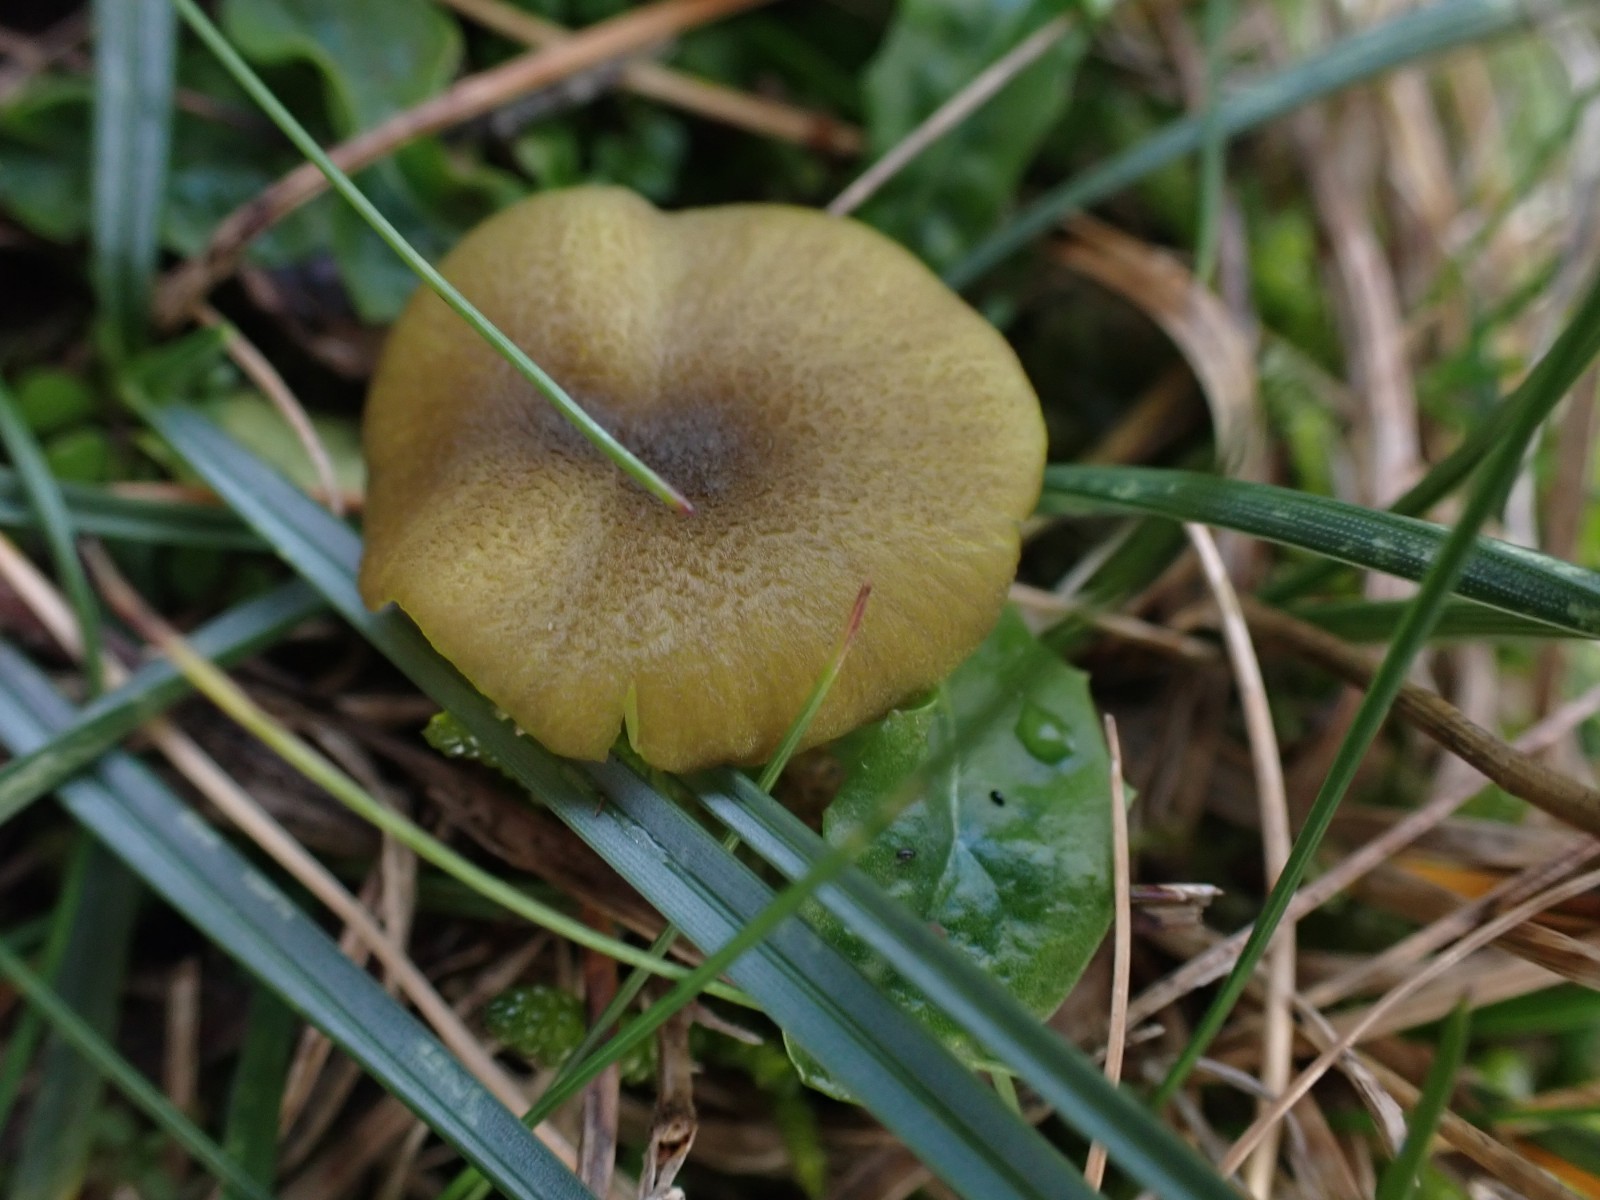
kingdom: Fungi
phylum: Basidiomycota
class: Agaricomycetes
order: Agaricales
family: Entolomataceae
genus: Entoloma
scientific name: Entoloma incanum
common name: grøngul rødblad
